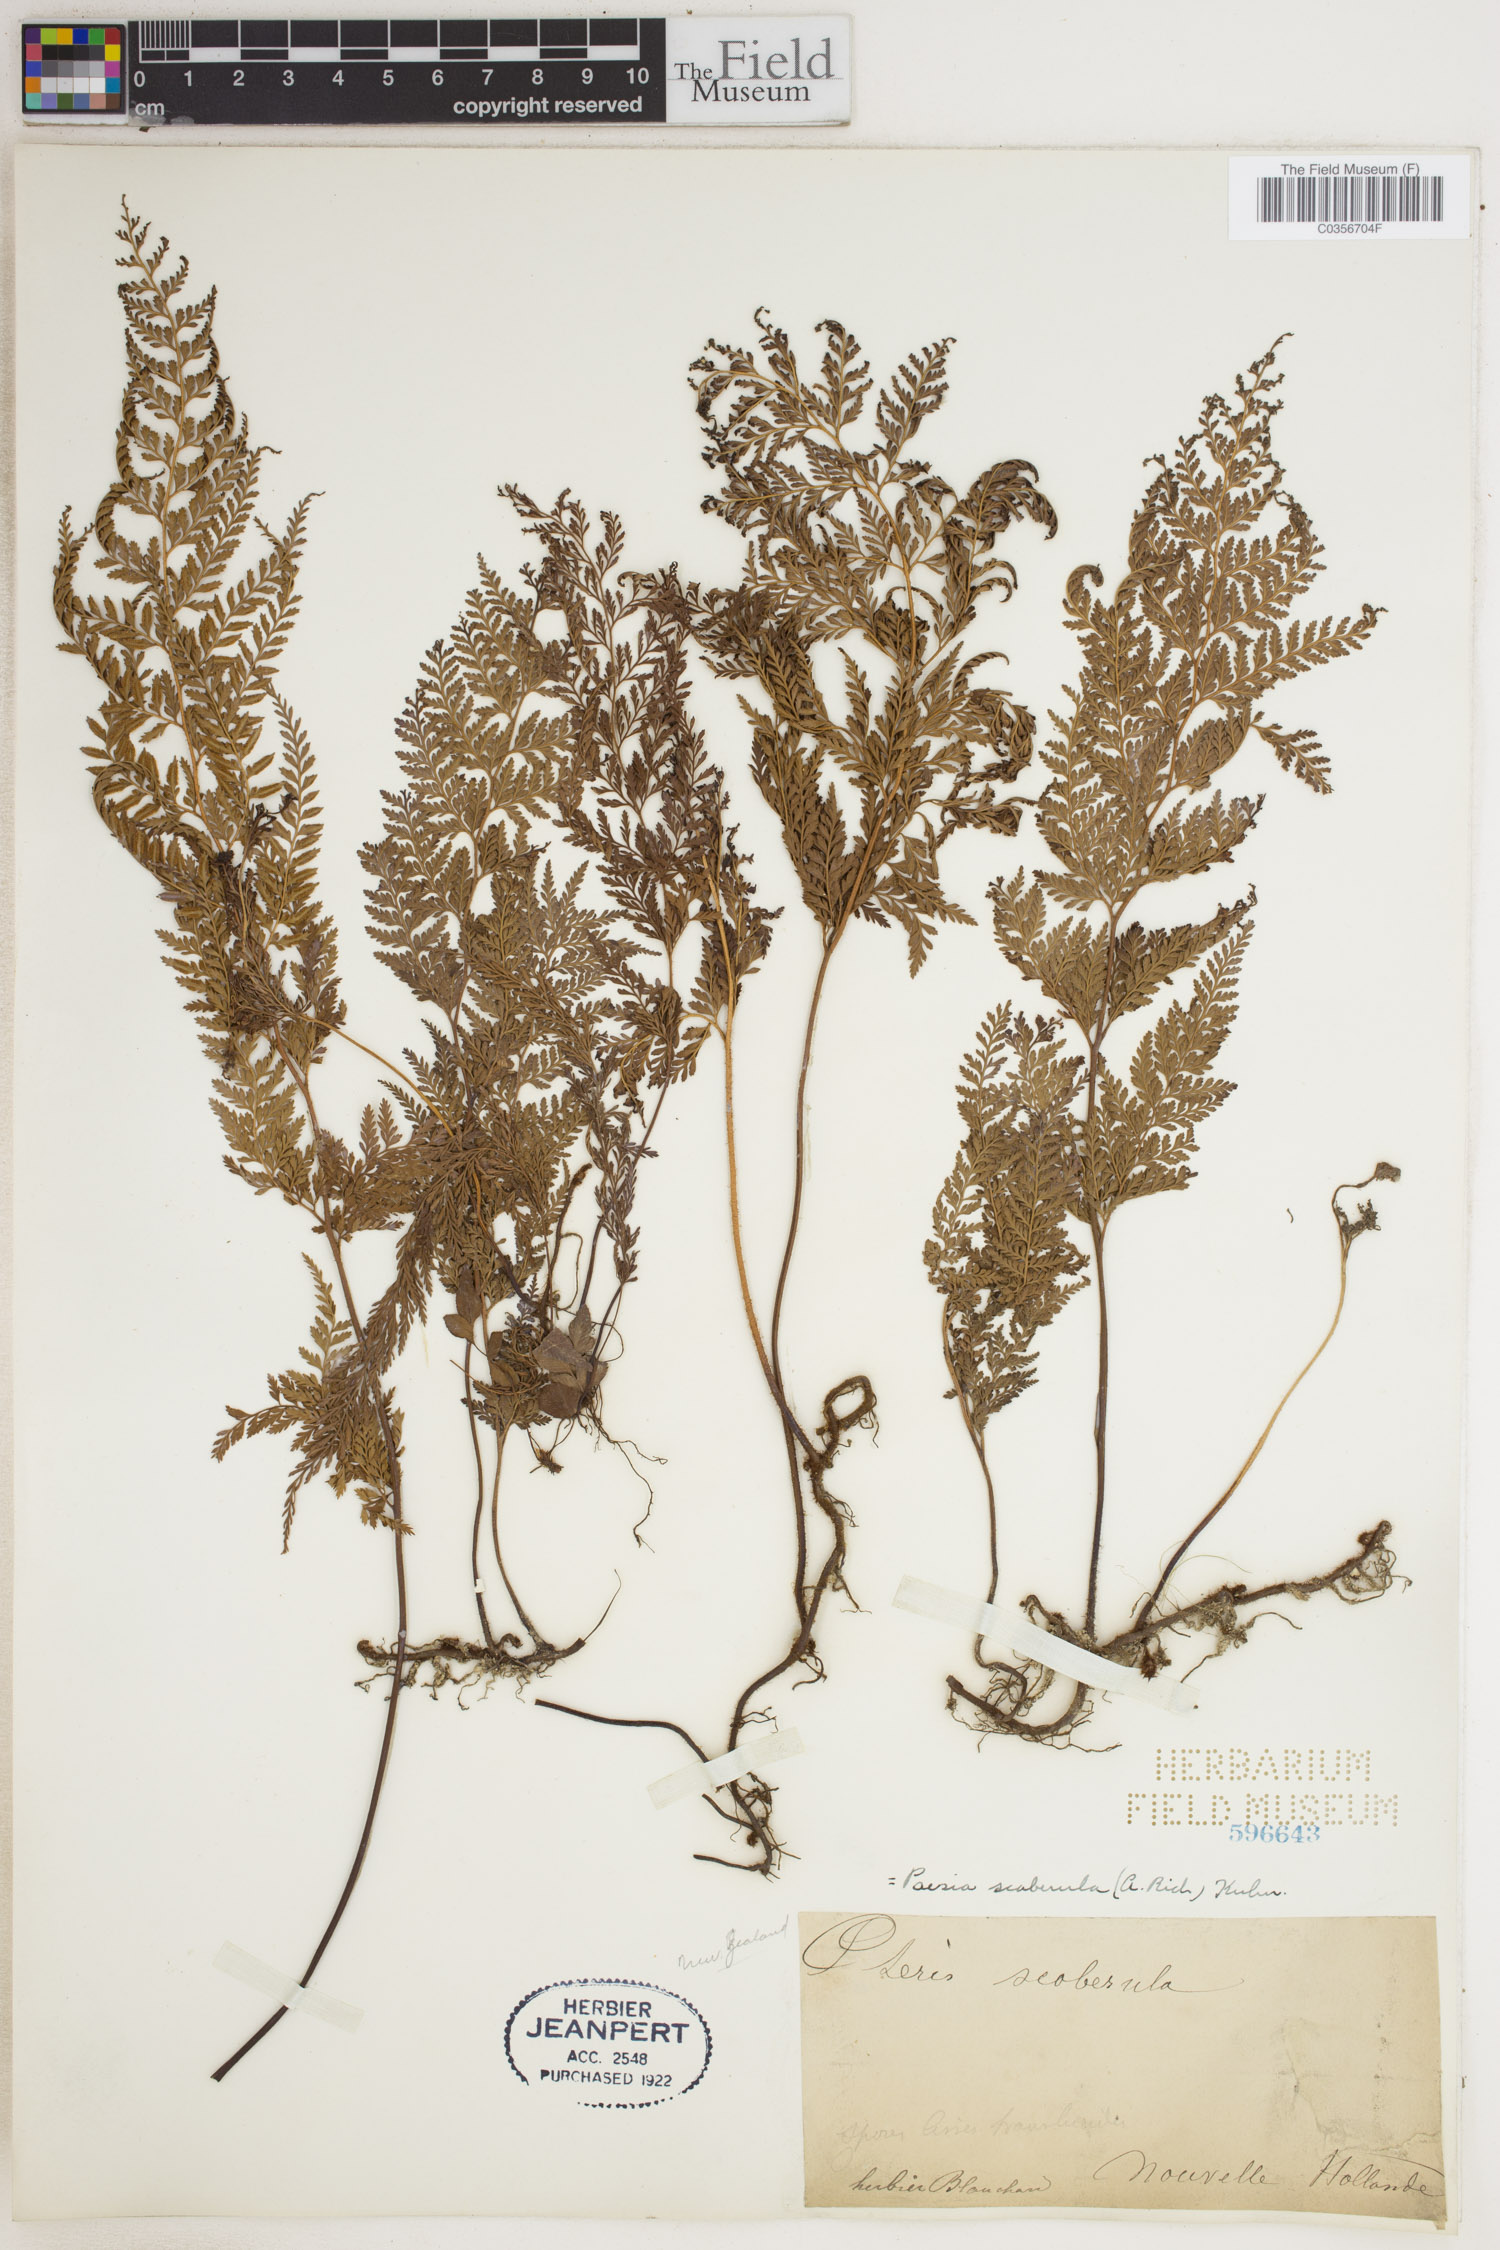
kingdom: Plantae
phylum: Tracheophyta
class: Polypodiopsida
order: Polypodiales
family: Dennstaedtiaceae
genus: Paesia
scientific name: Paesia scaberula
